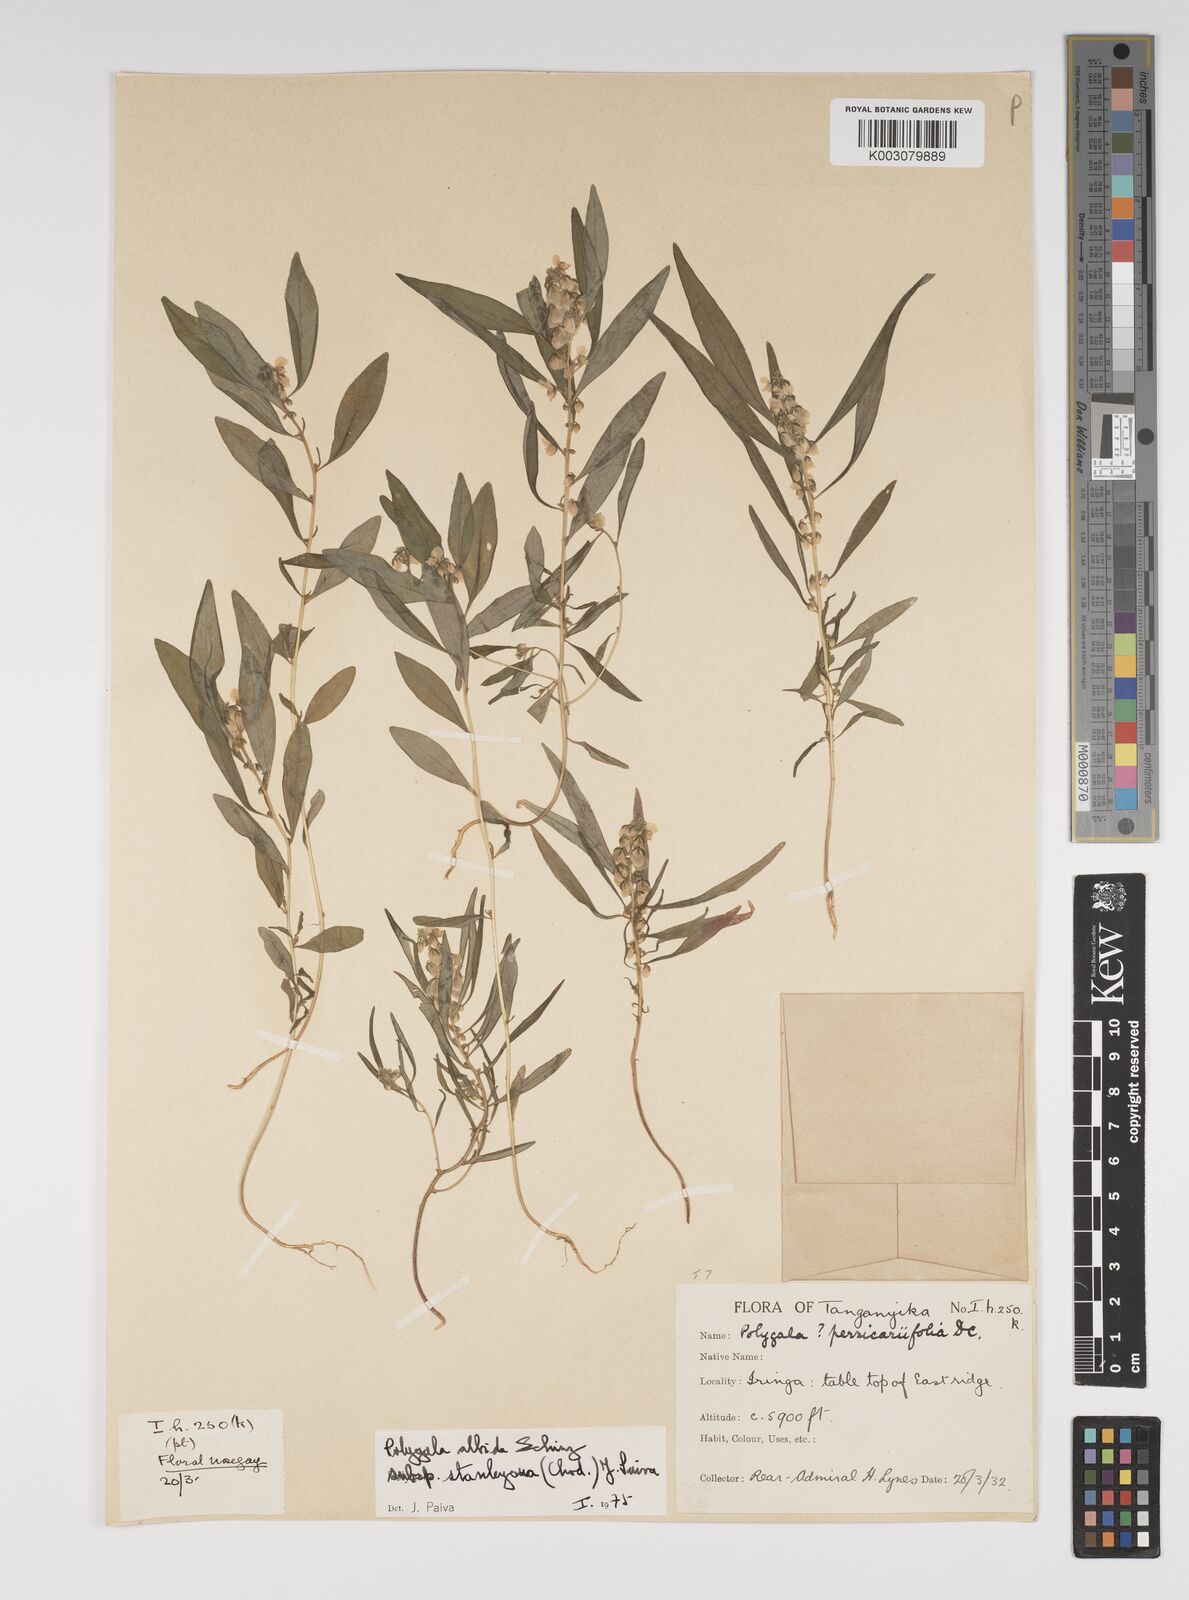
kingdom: Plantae
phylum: Tracheophyta
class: Magnoliopsida
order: Fabales
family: Polygalaceae
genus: Polygala
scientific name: Polygala albida
